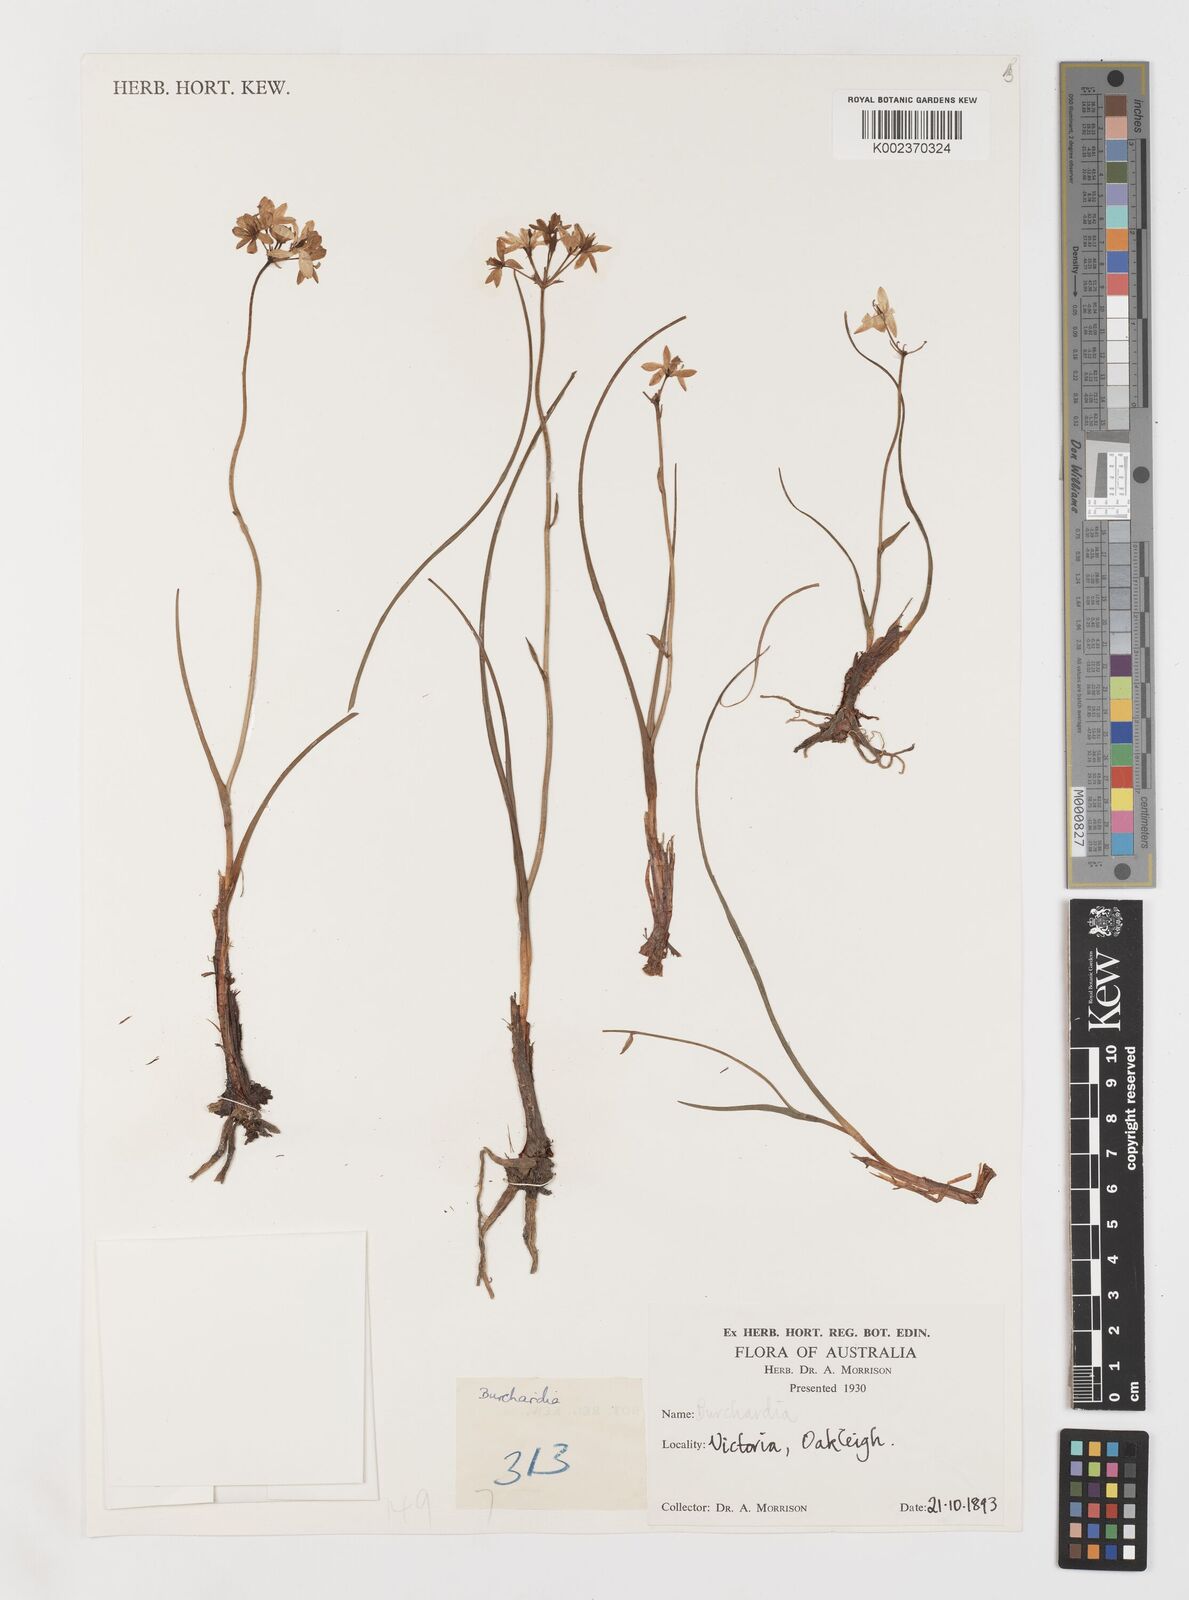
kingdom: Plantae
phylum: Tracheophyta
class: Liliopsida
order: Liliales
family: Colchicaceae
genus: Burchardia
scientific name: Burchardia
